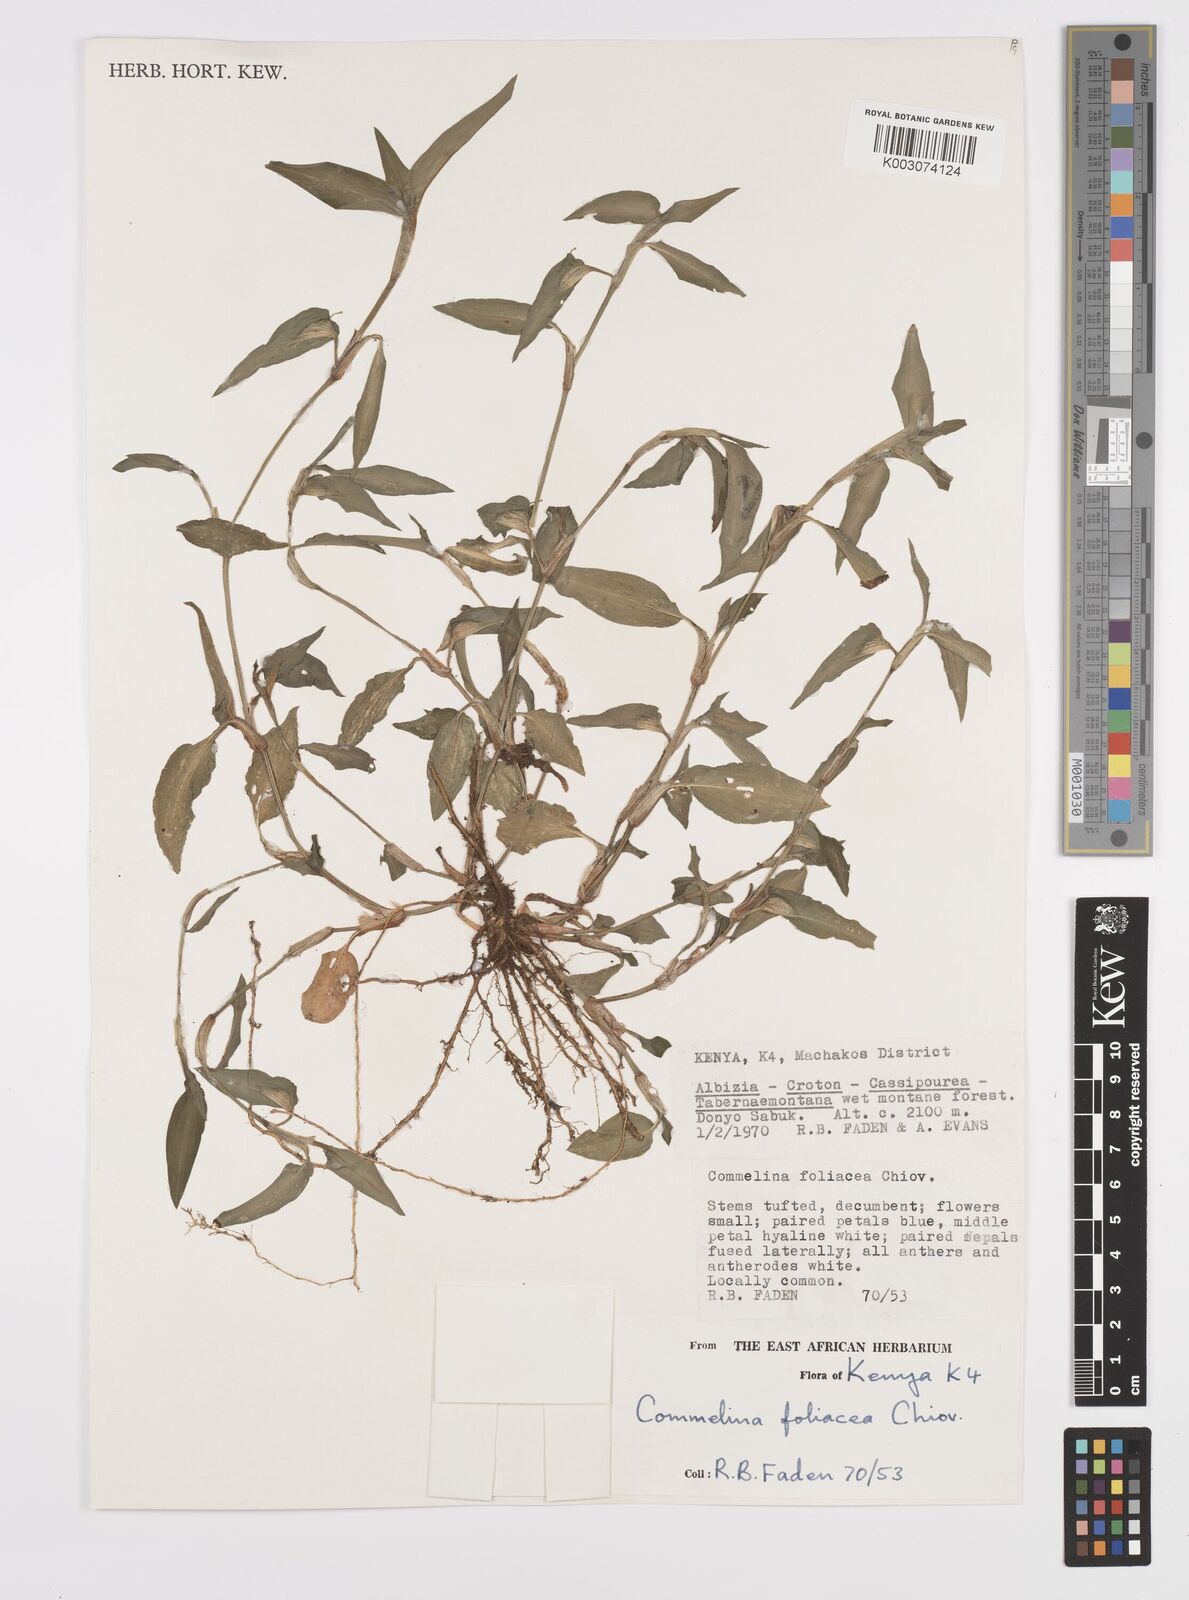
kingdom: Plantae
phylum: Tracheophyta
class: Liliopsida
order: Commelinales
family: Commelinaceae
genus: Commelina
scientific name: Commelina foliacea
